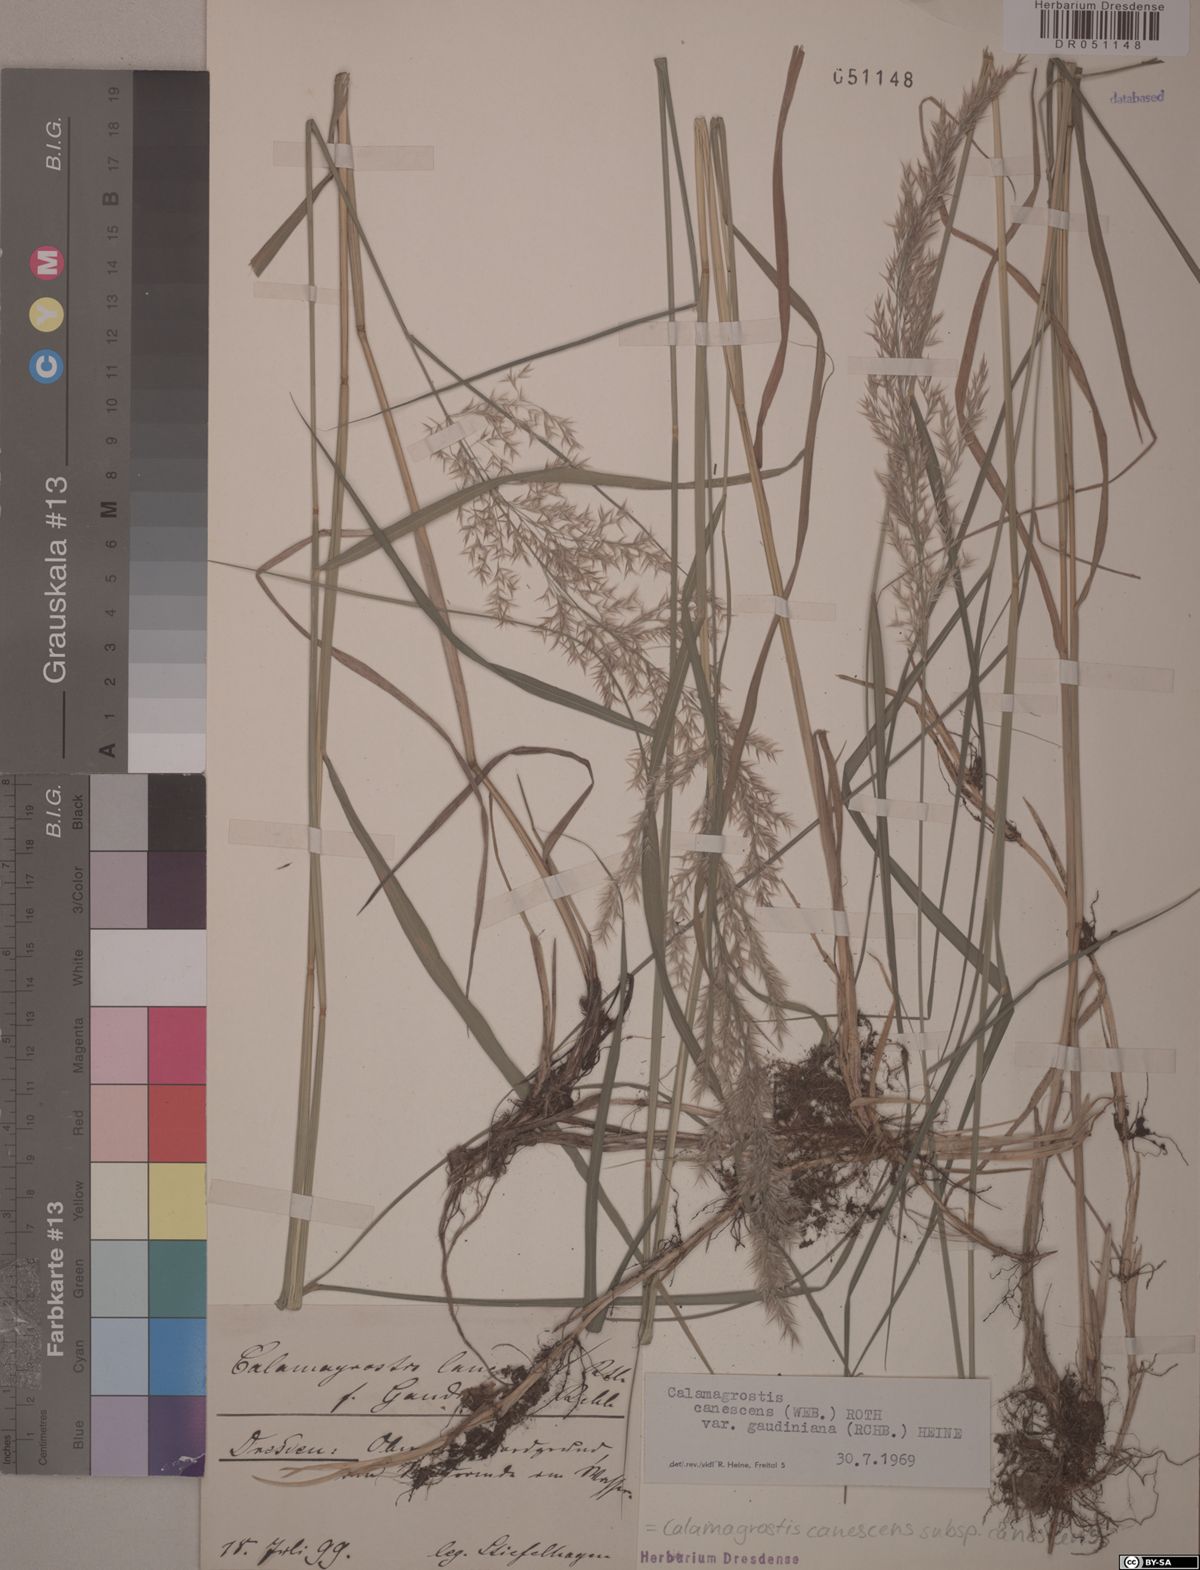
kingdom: Plantae
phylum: Tracheophyta
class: Liliopsida
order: Poales
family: Poaceae
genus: Calamagrostis
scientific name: Calamagrostis canescens
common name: Purple small-reed
